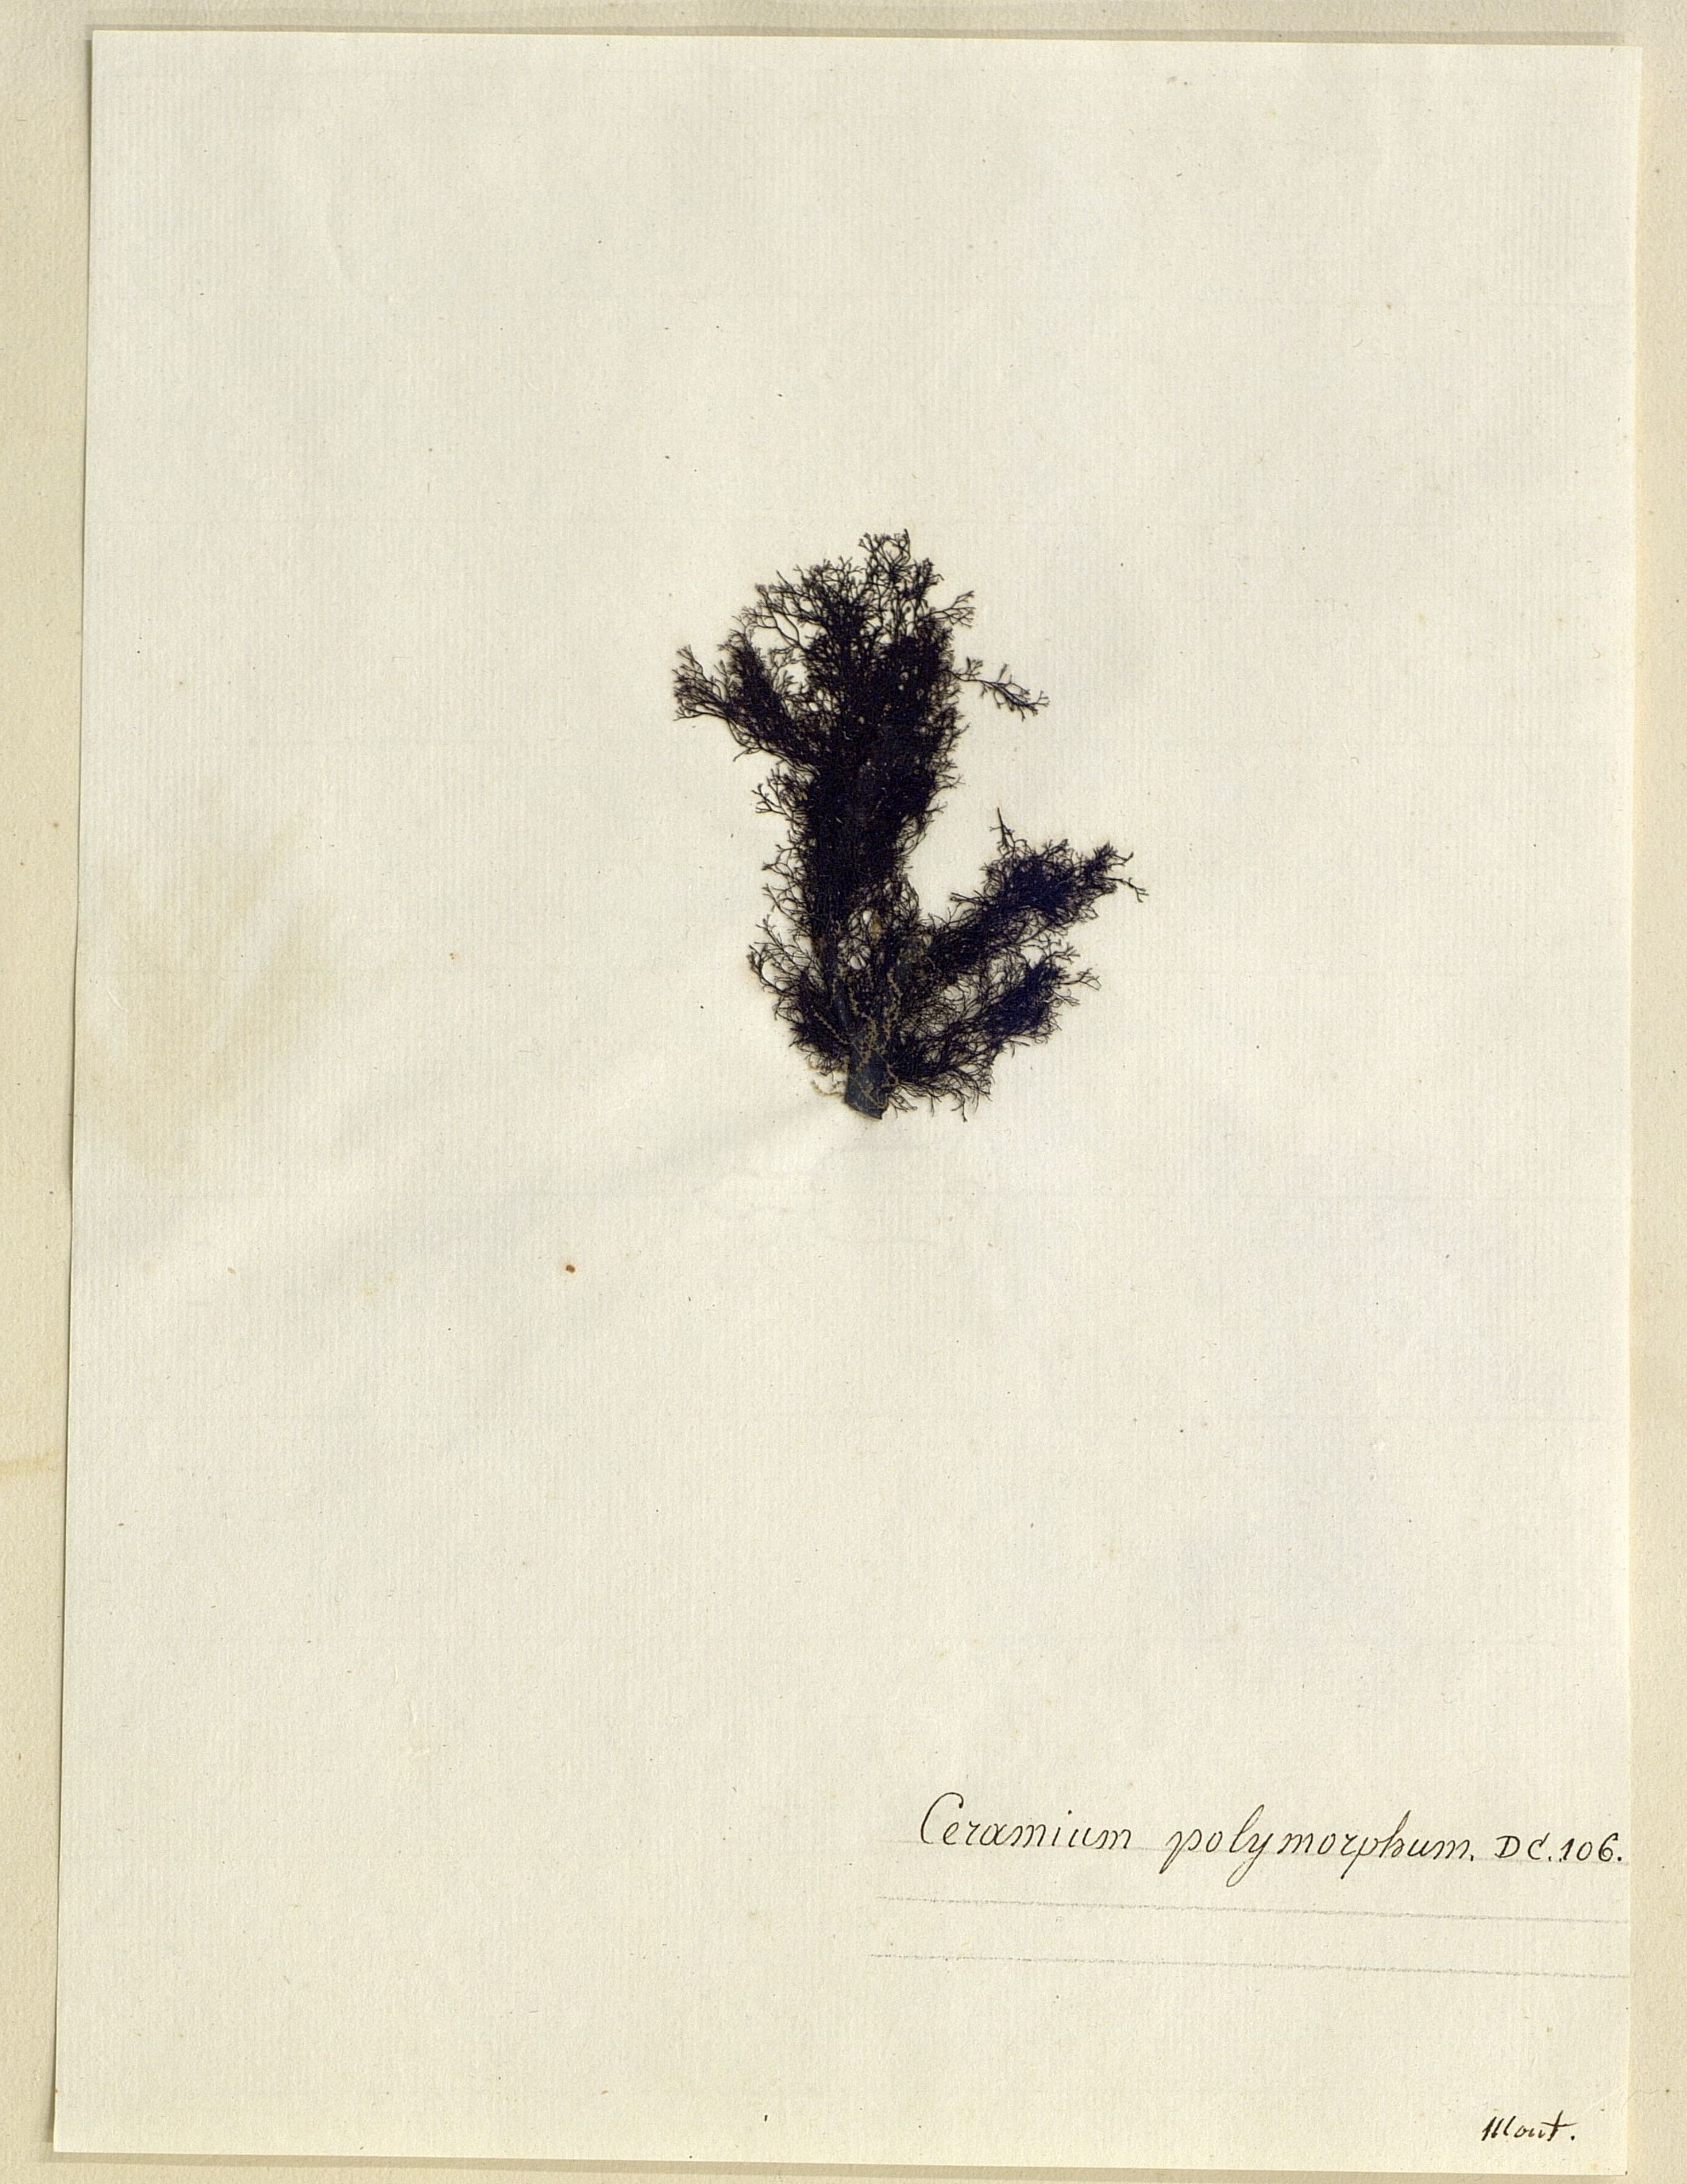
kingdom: Plantae
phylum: Rhodophyta
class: Florideophyceae
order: Ceramiales
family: Ceramiaceae
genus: Ceramium
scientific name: Ceramium
